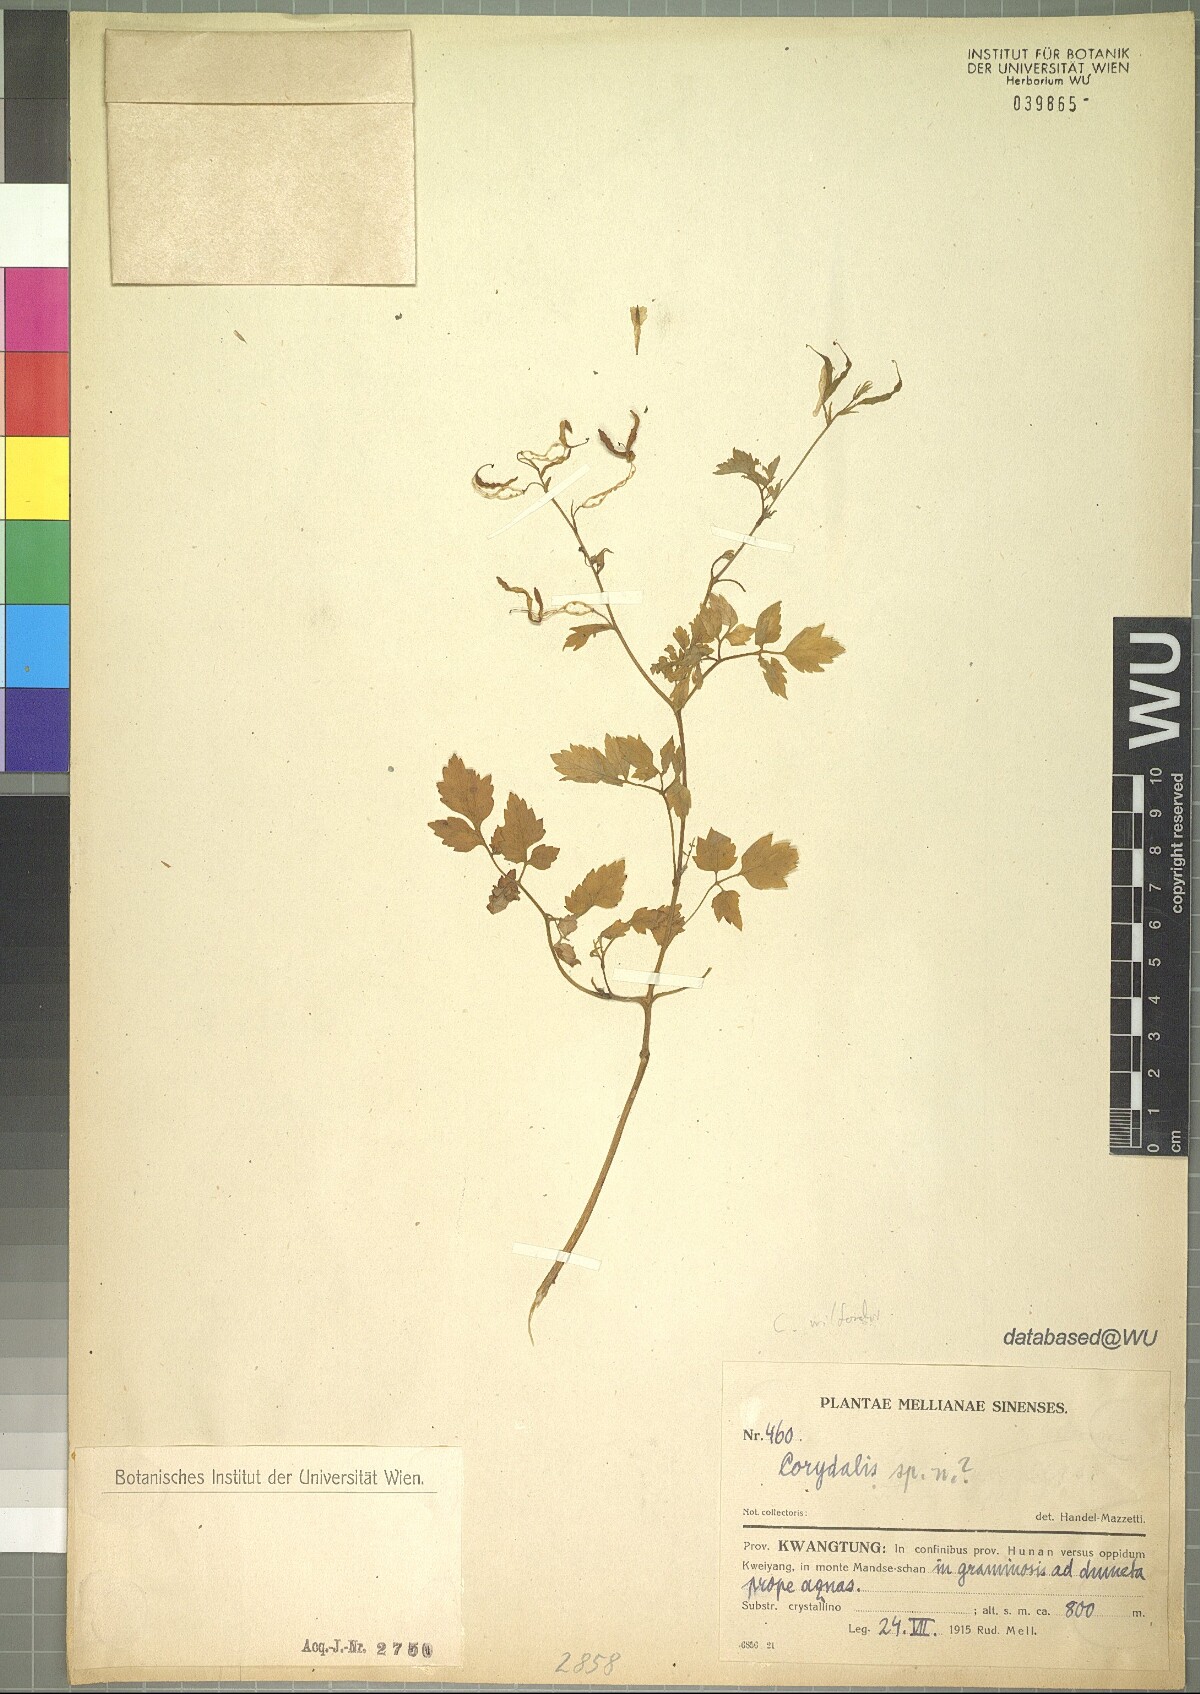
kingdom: Plantae
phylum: Tracheophyta
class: Magnoliopsida
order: Ranunculales
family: Papaveraceae
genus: Corydalis
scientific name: Corydalis
